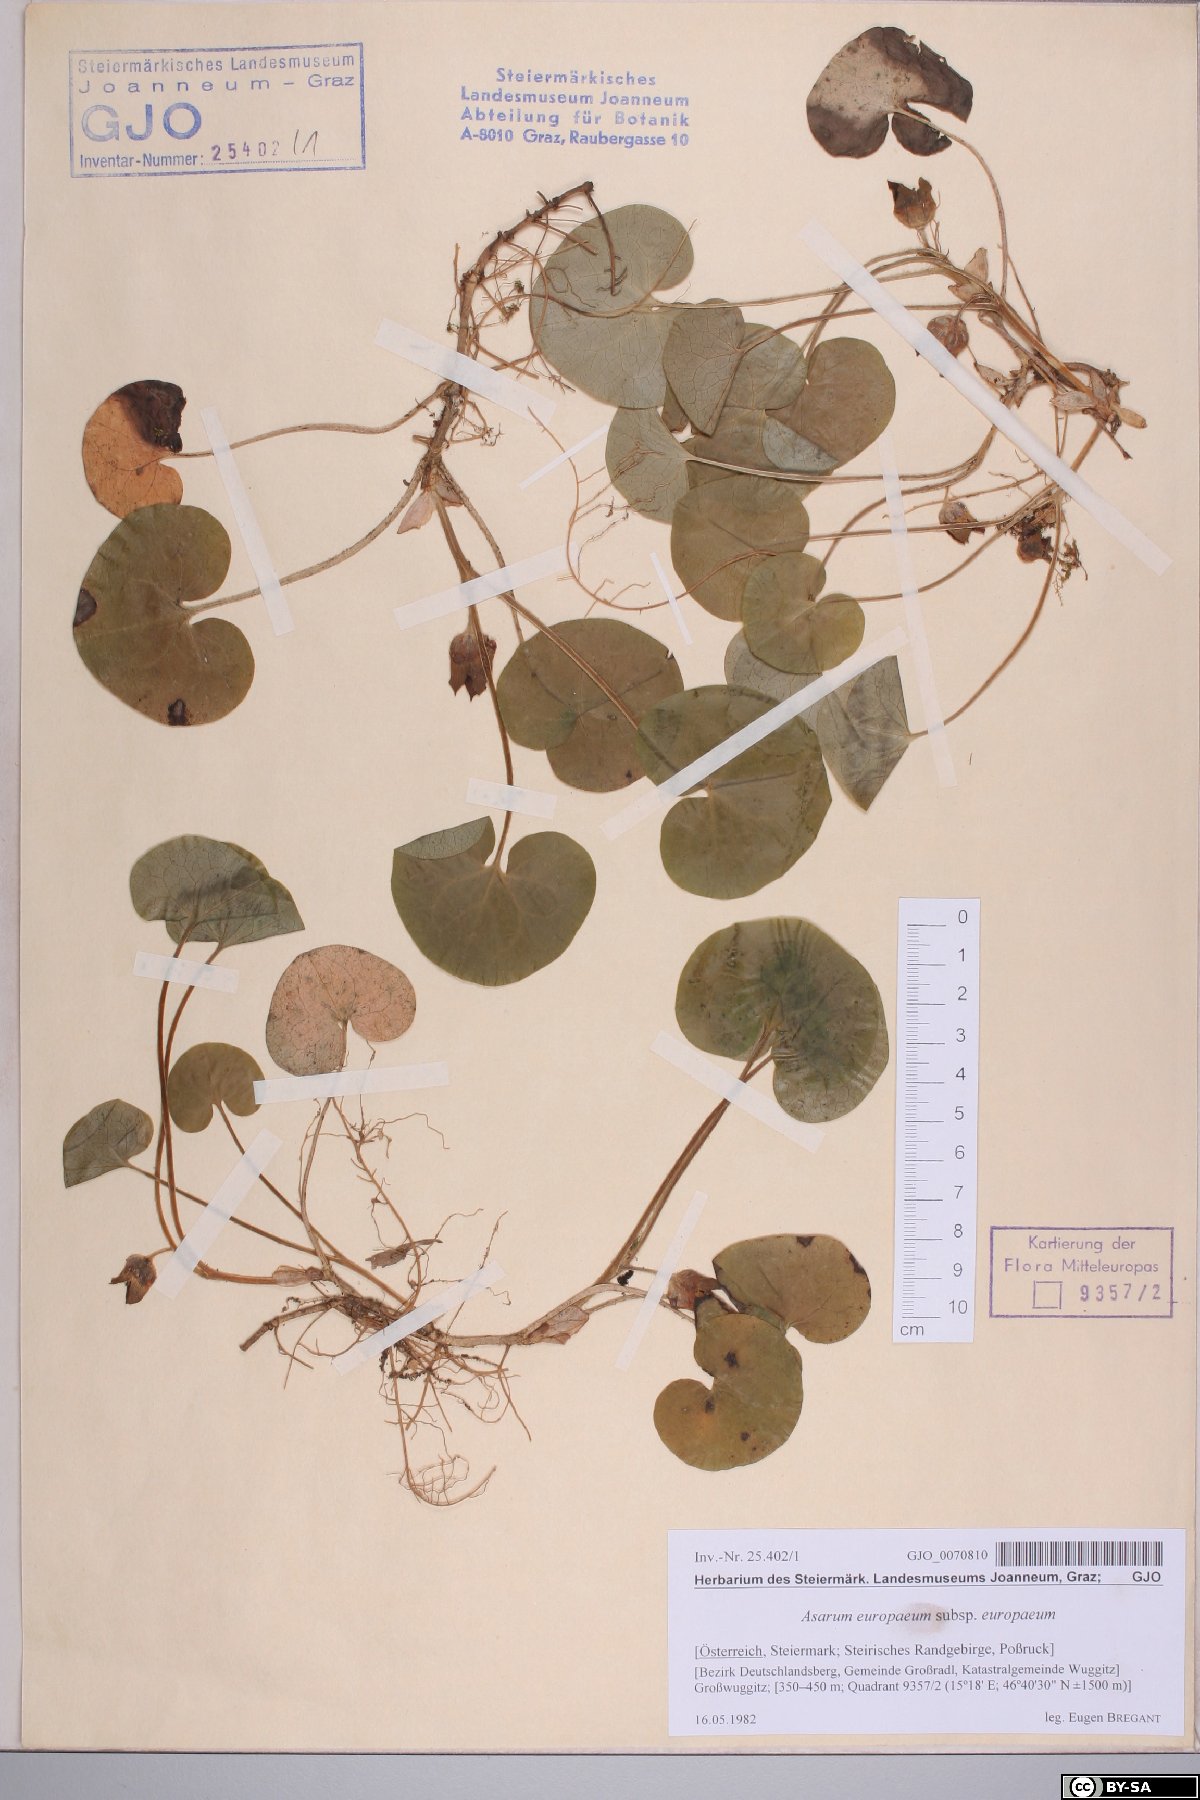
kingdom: Plantae
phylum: Tracheophyta
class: Magnoliopsida
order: Piperales
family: Aristolochiaceae
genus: Asarum
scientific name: Asarum europaeum
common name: Asarabacca
